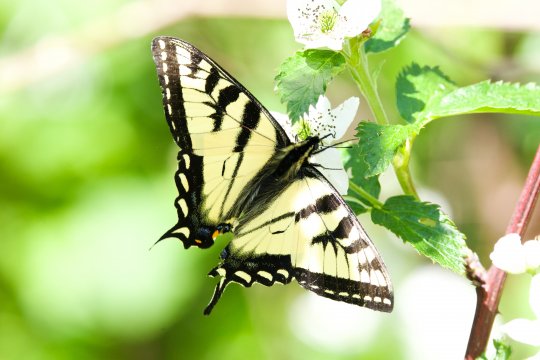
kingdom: Animalia
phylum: Arthropoda
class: Insecta
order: Lepidoptera
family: Papilionidae
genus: Pterourus
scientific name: Pterourus canadensis
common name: Canadian Tiger Swallowtail
